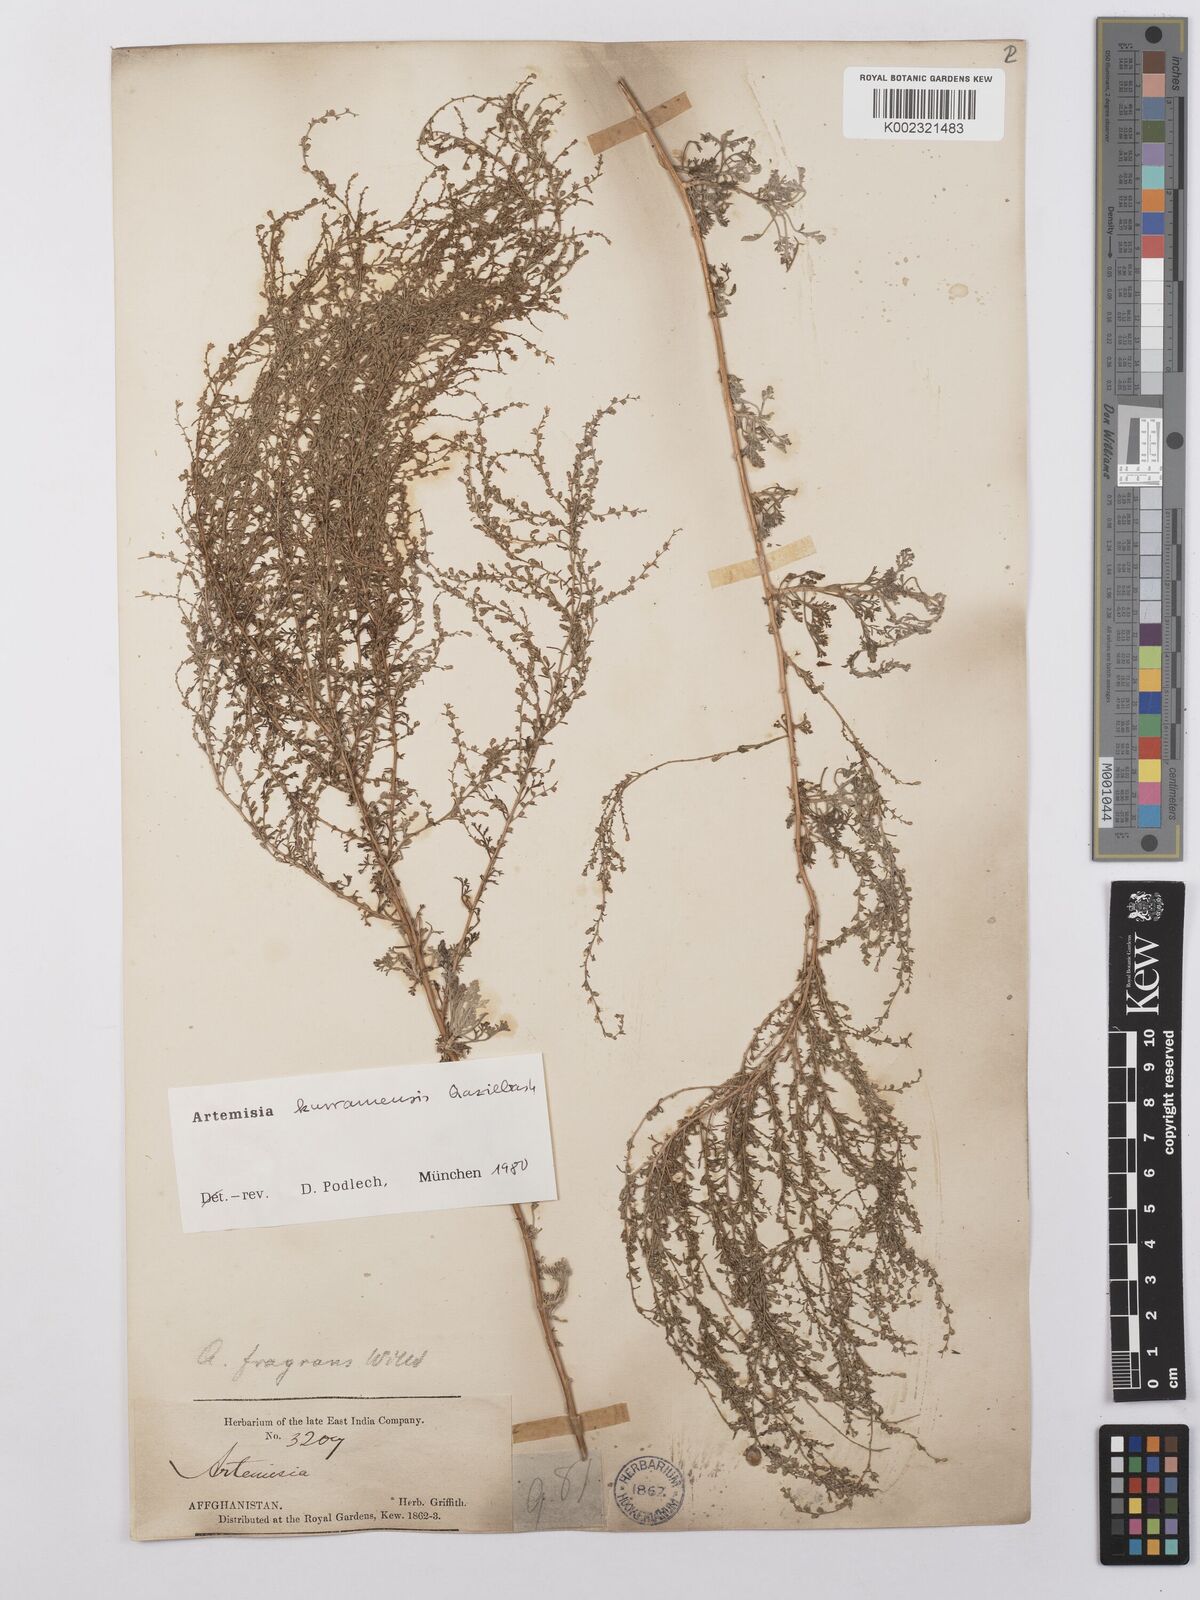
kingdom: Plantae
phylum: Tracheophyta
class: Magnoliopsida
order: Asterales
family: Asteraceae
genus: Artemisia
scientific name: Artemisia kurramensis
